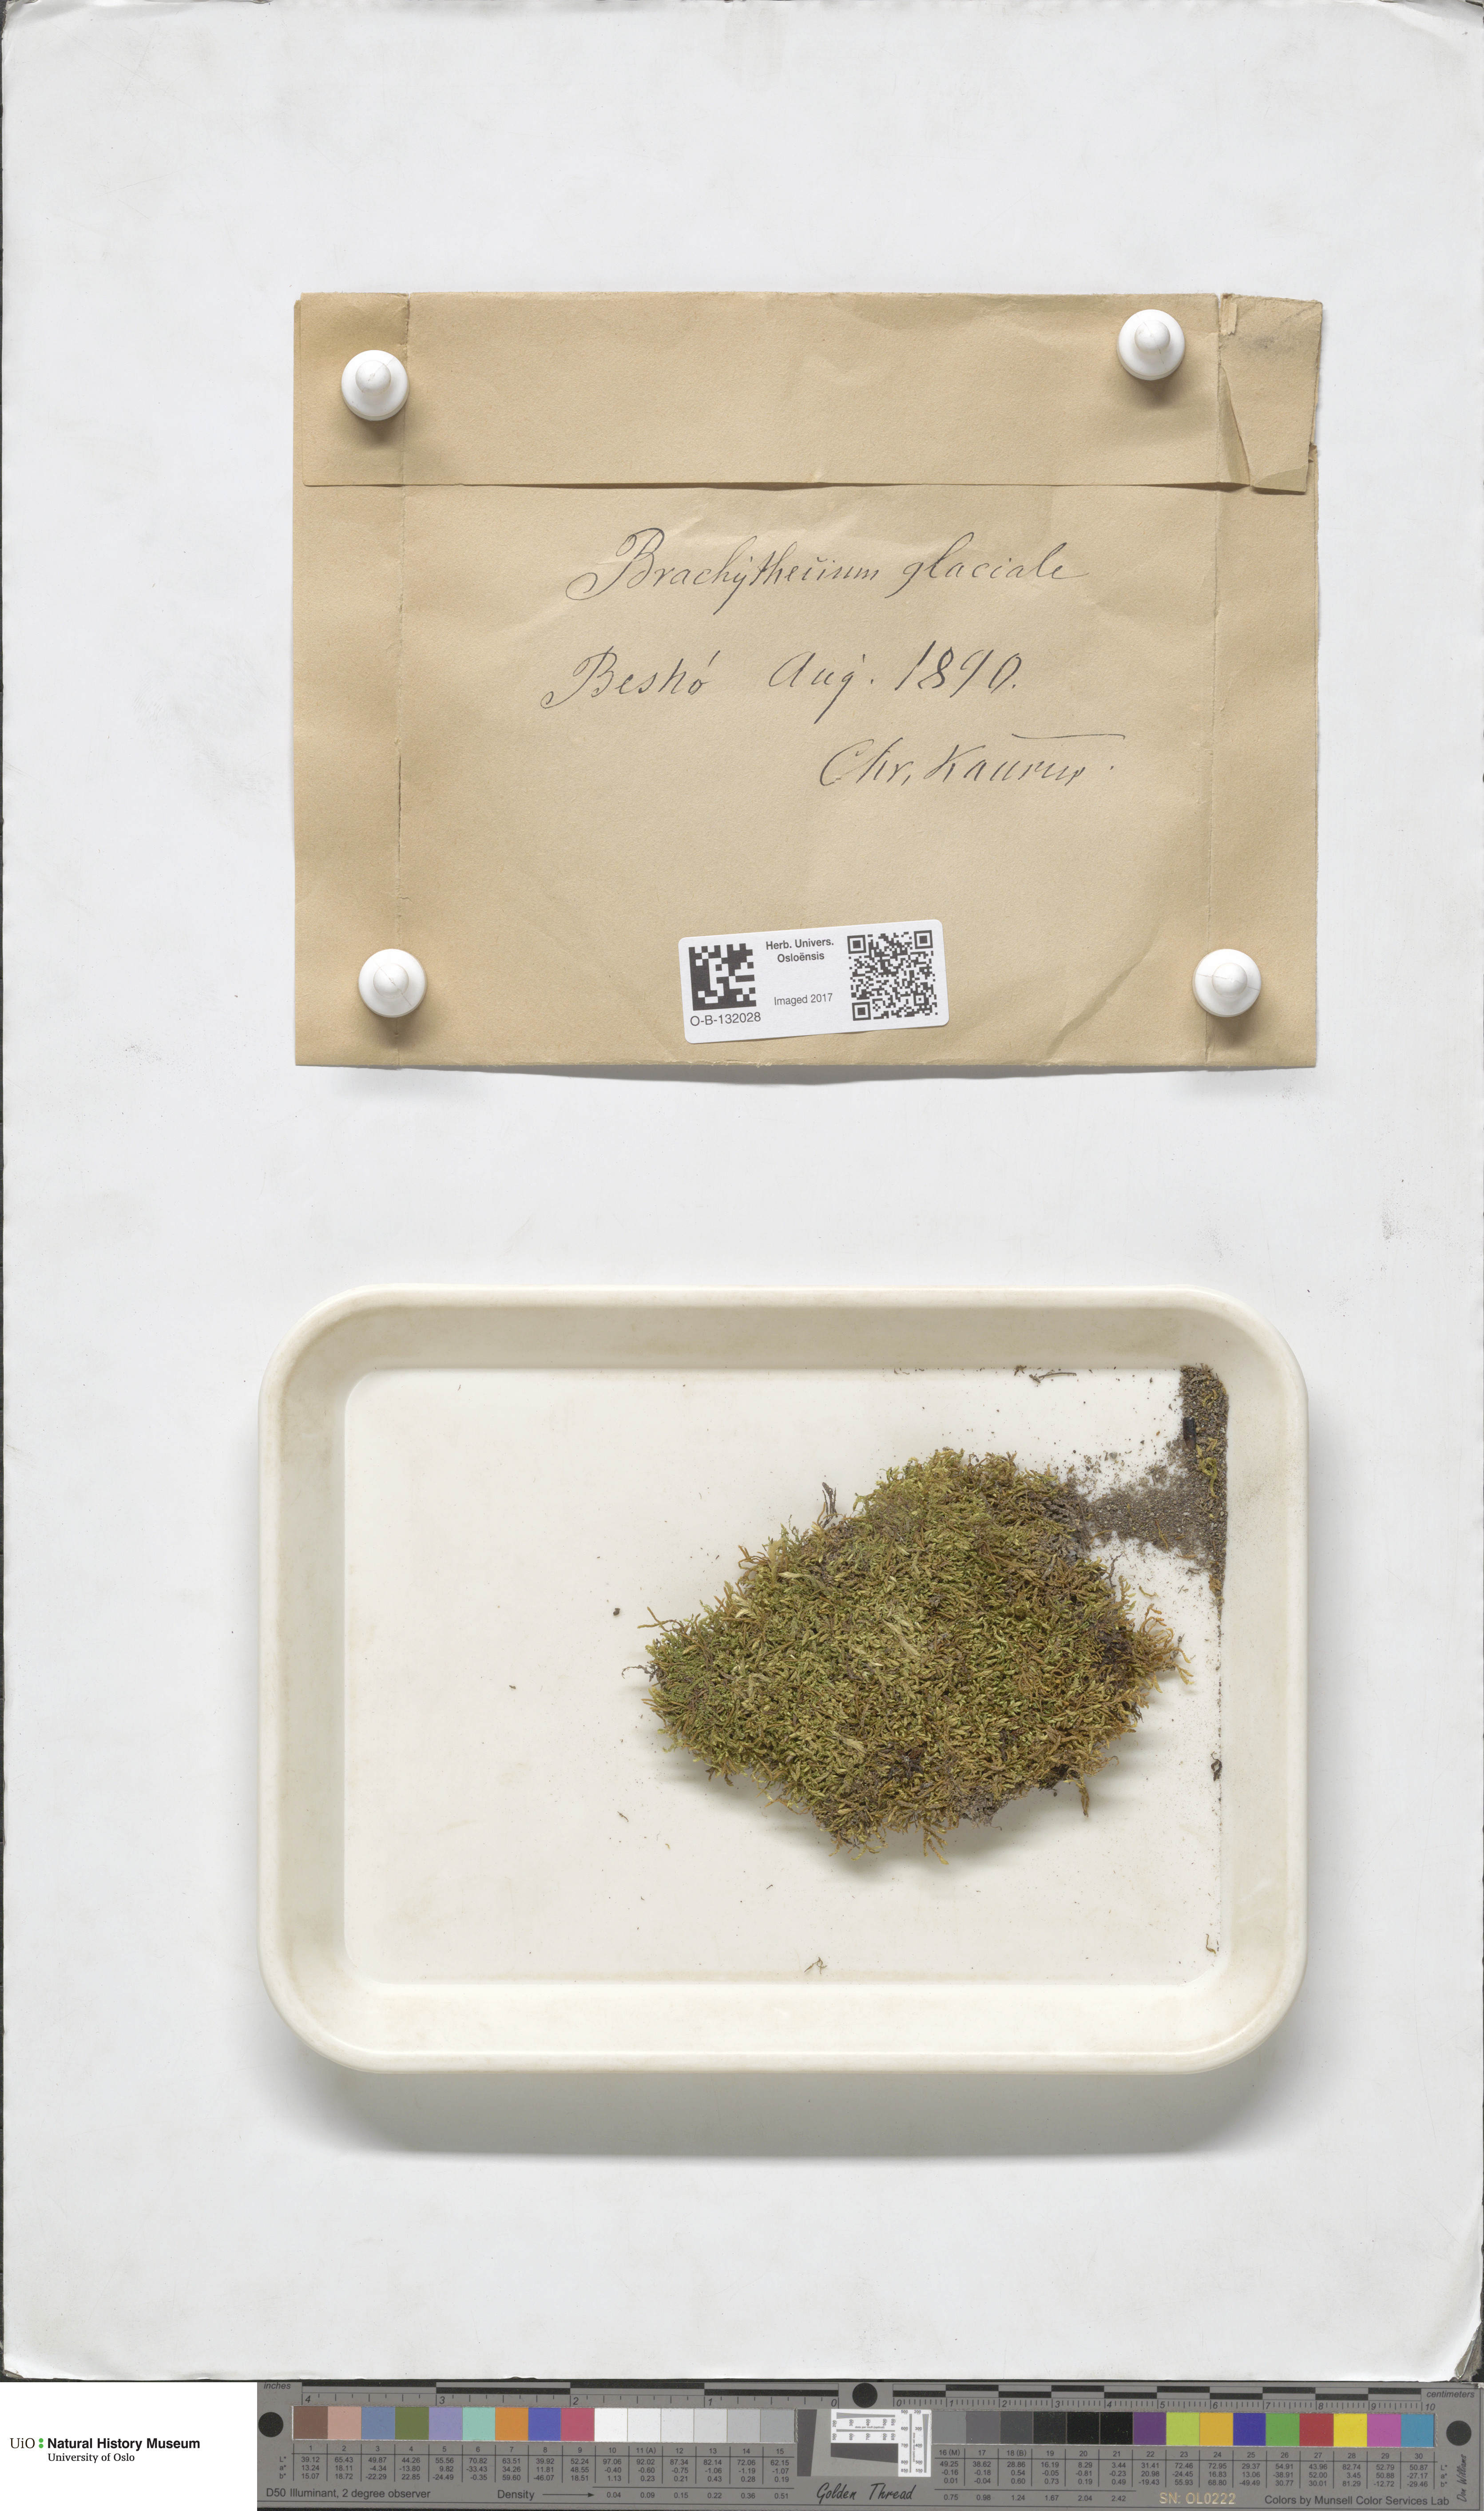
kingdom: Plantae
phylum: Bryophyta
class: Bryopsida
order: Hypnales
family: Brachytheciaceae
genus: Brachythecium
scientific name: Brachythecium erythrorrhizon
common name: Taiga ragged moss
